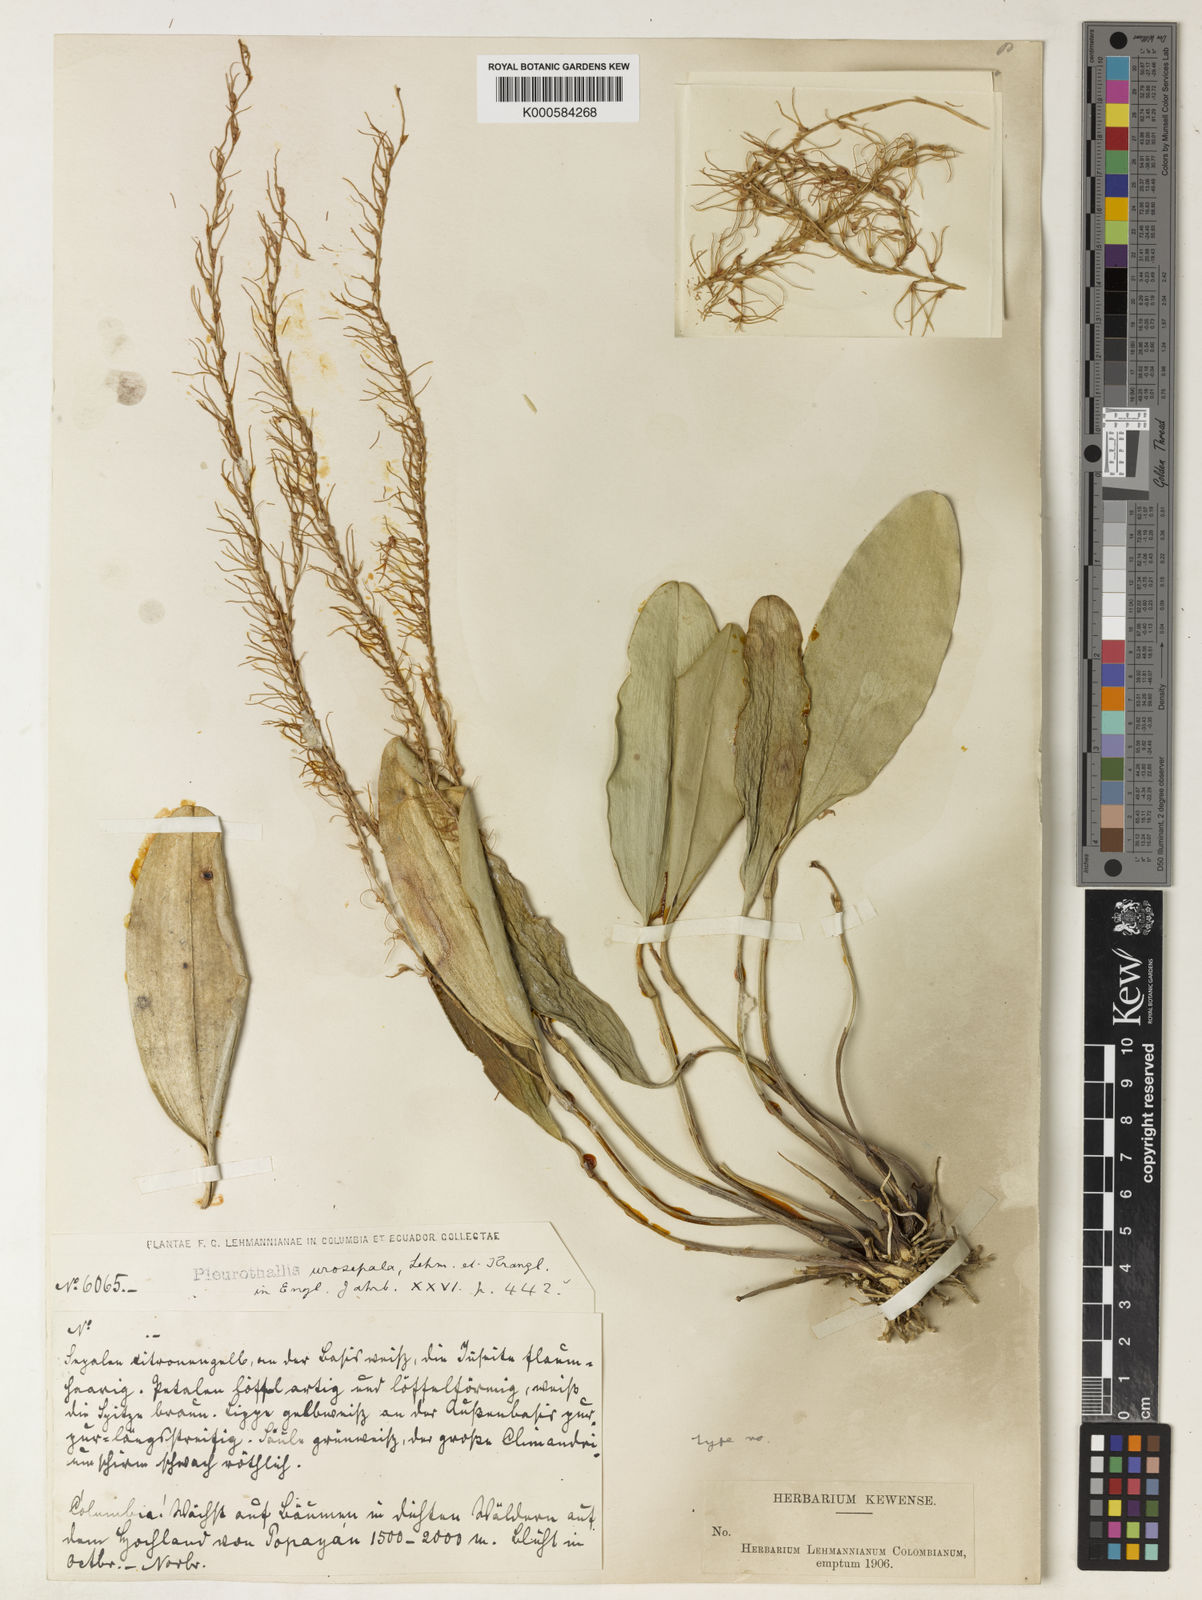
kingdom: Plantae
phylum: Tracheophyta
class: Liliopsida
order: Asparagales
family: Orchidaceae
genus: Stelis
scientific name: Stelis sclerophylla
